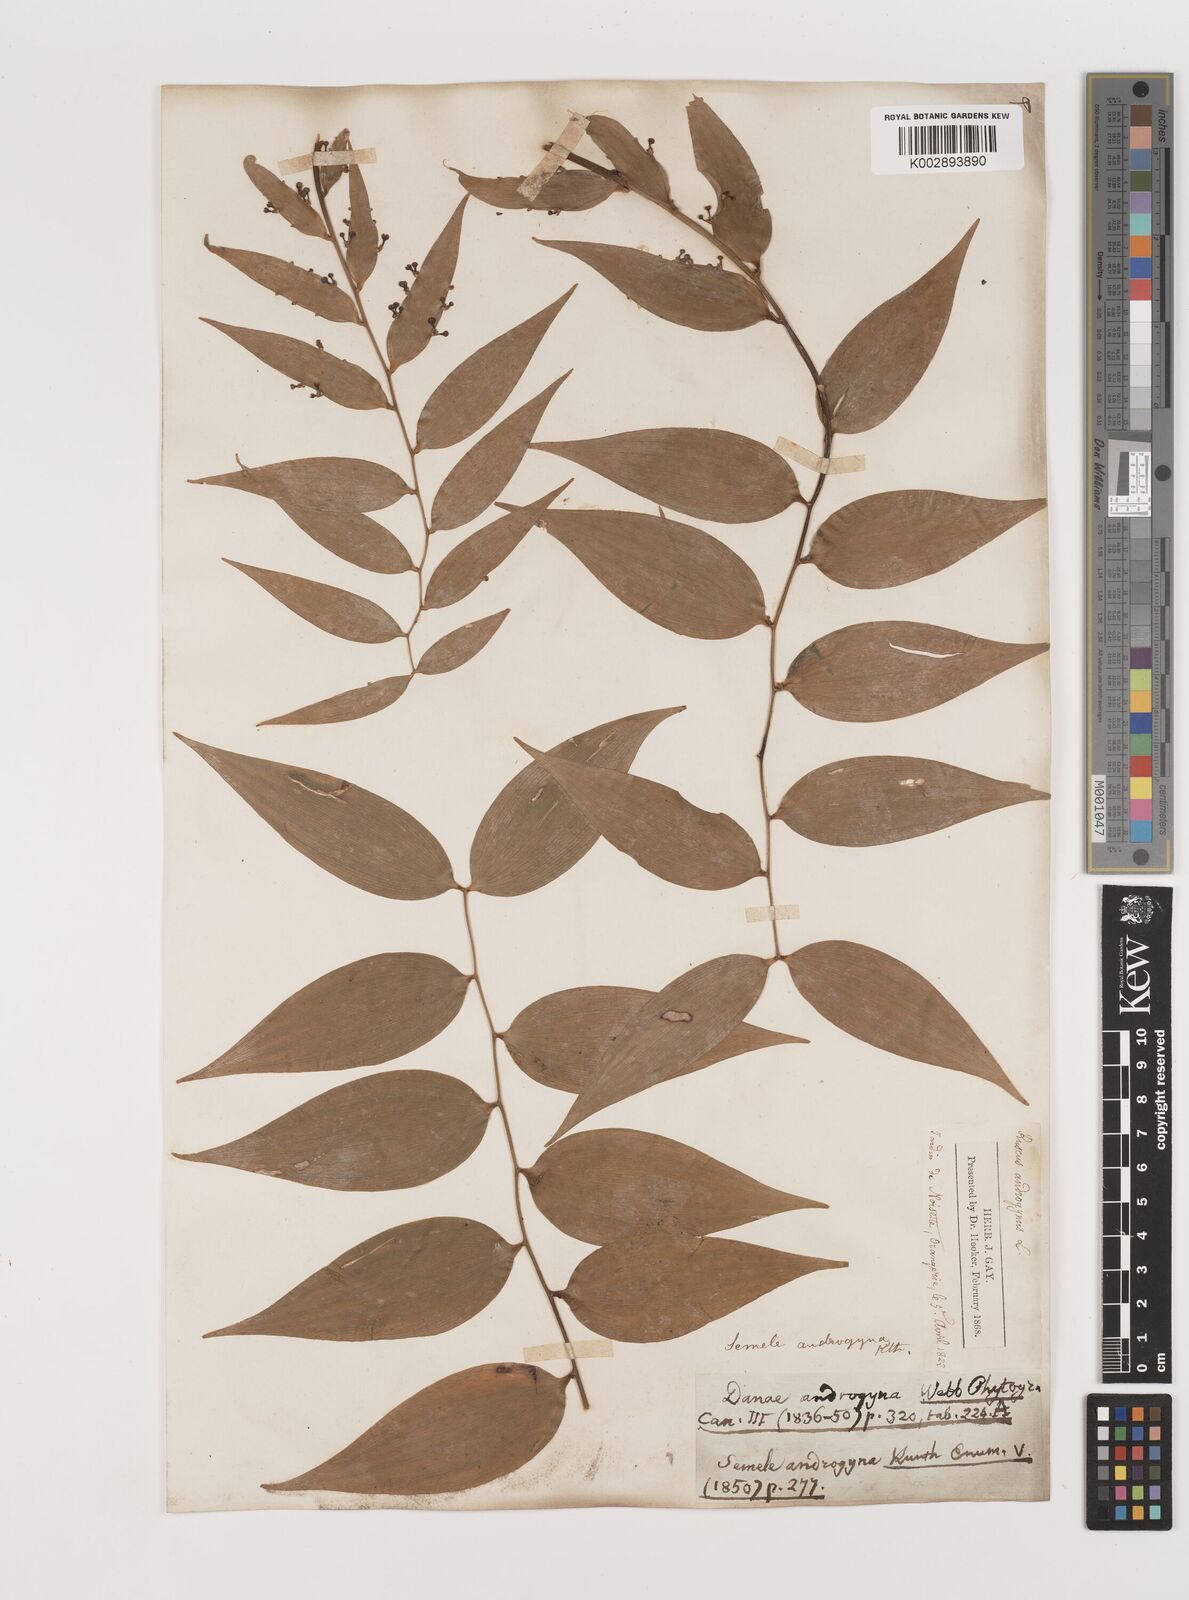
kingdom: Plantae
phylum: Tracheophyta
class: Liliopsida
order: Asparagales
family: Asparagaceae
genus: Semele
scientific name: Semele androgyna
